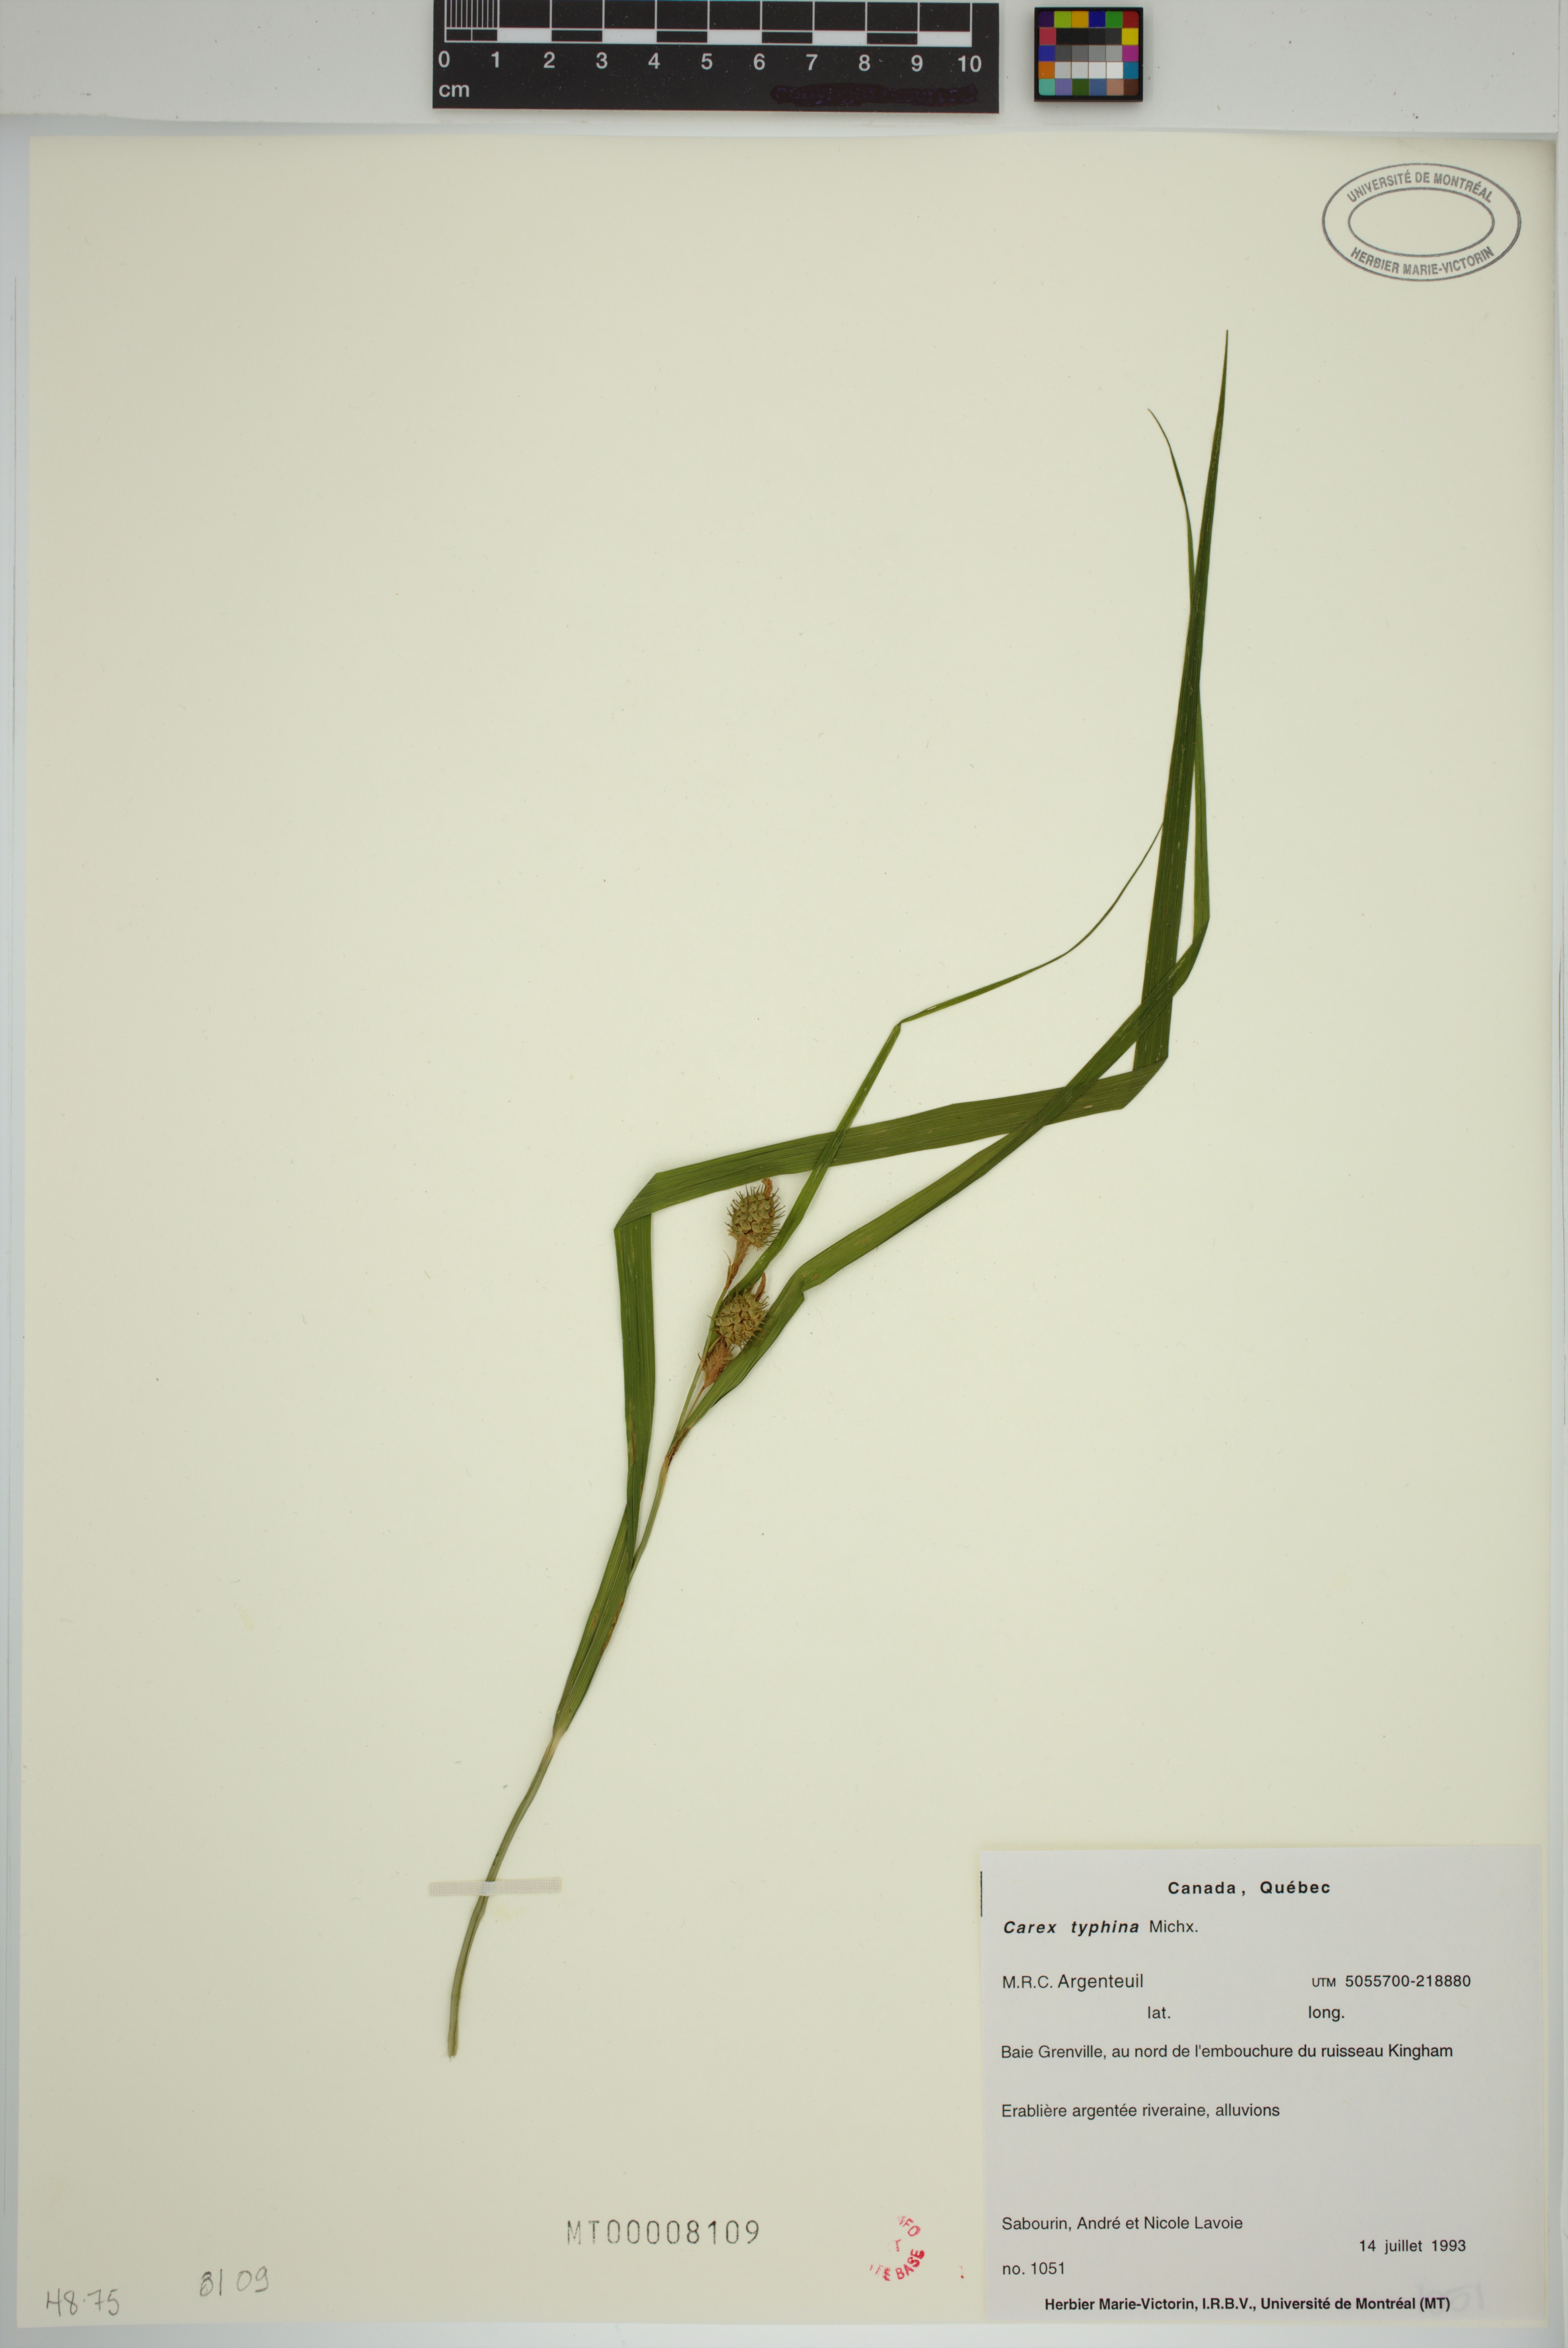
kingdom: Plantae
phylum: Tracheophyta
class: Liliopsida
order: Poales
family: Cyperaceae
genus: Carex
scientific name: Carex typhina
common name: Cattail sedge
